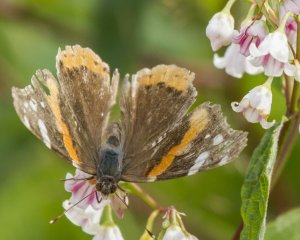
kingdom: Animalia
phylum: Arthropoda
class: Insecta
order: Lepidoptera
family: Nymphalidae
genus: Vanessa
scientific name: Vanessa atalanta
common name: Red Admiral
